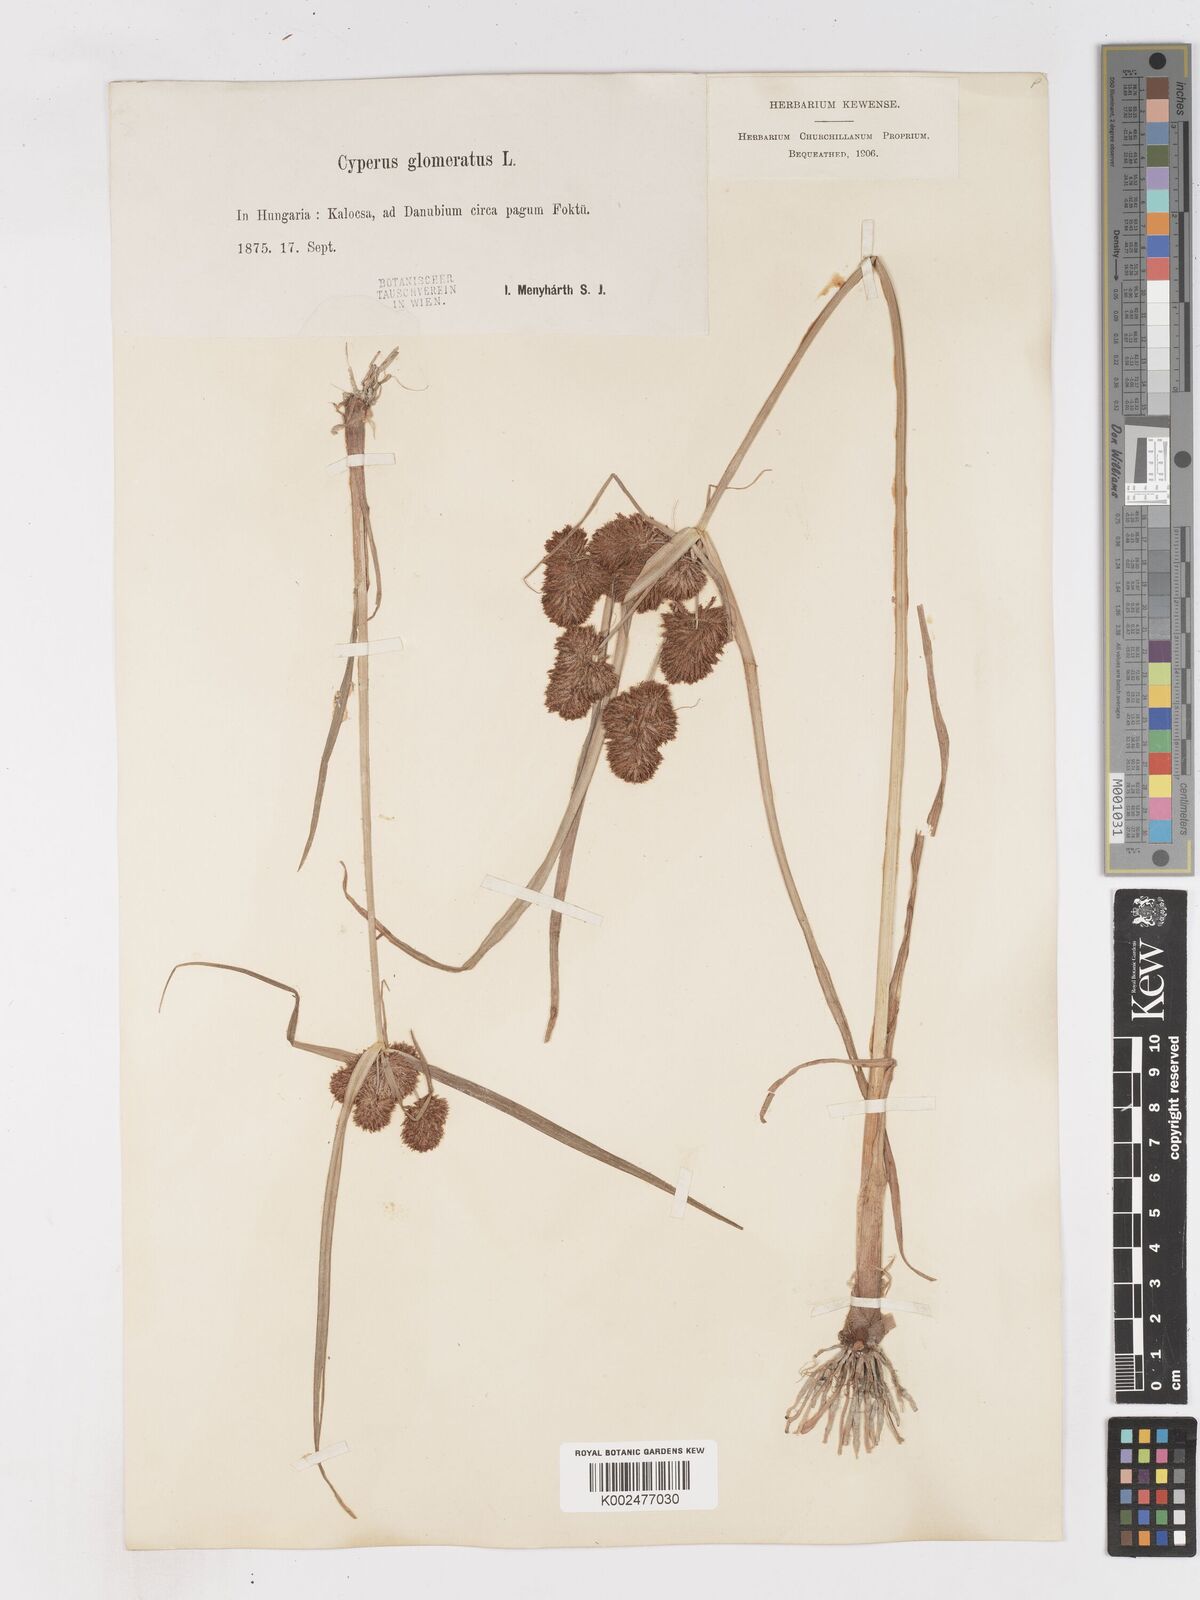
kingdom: Plantae
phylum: Tracheophyta
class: Liliopsida
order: Poales
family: Cyperaceae
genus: Cyperus
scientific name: Cyperus glomeratus
